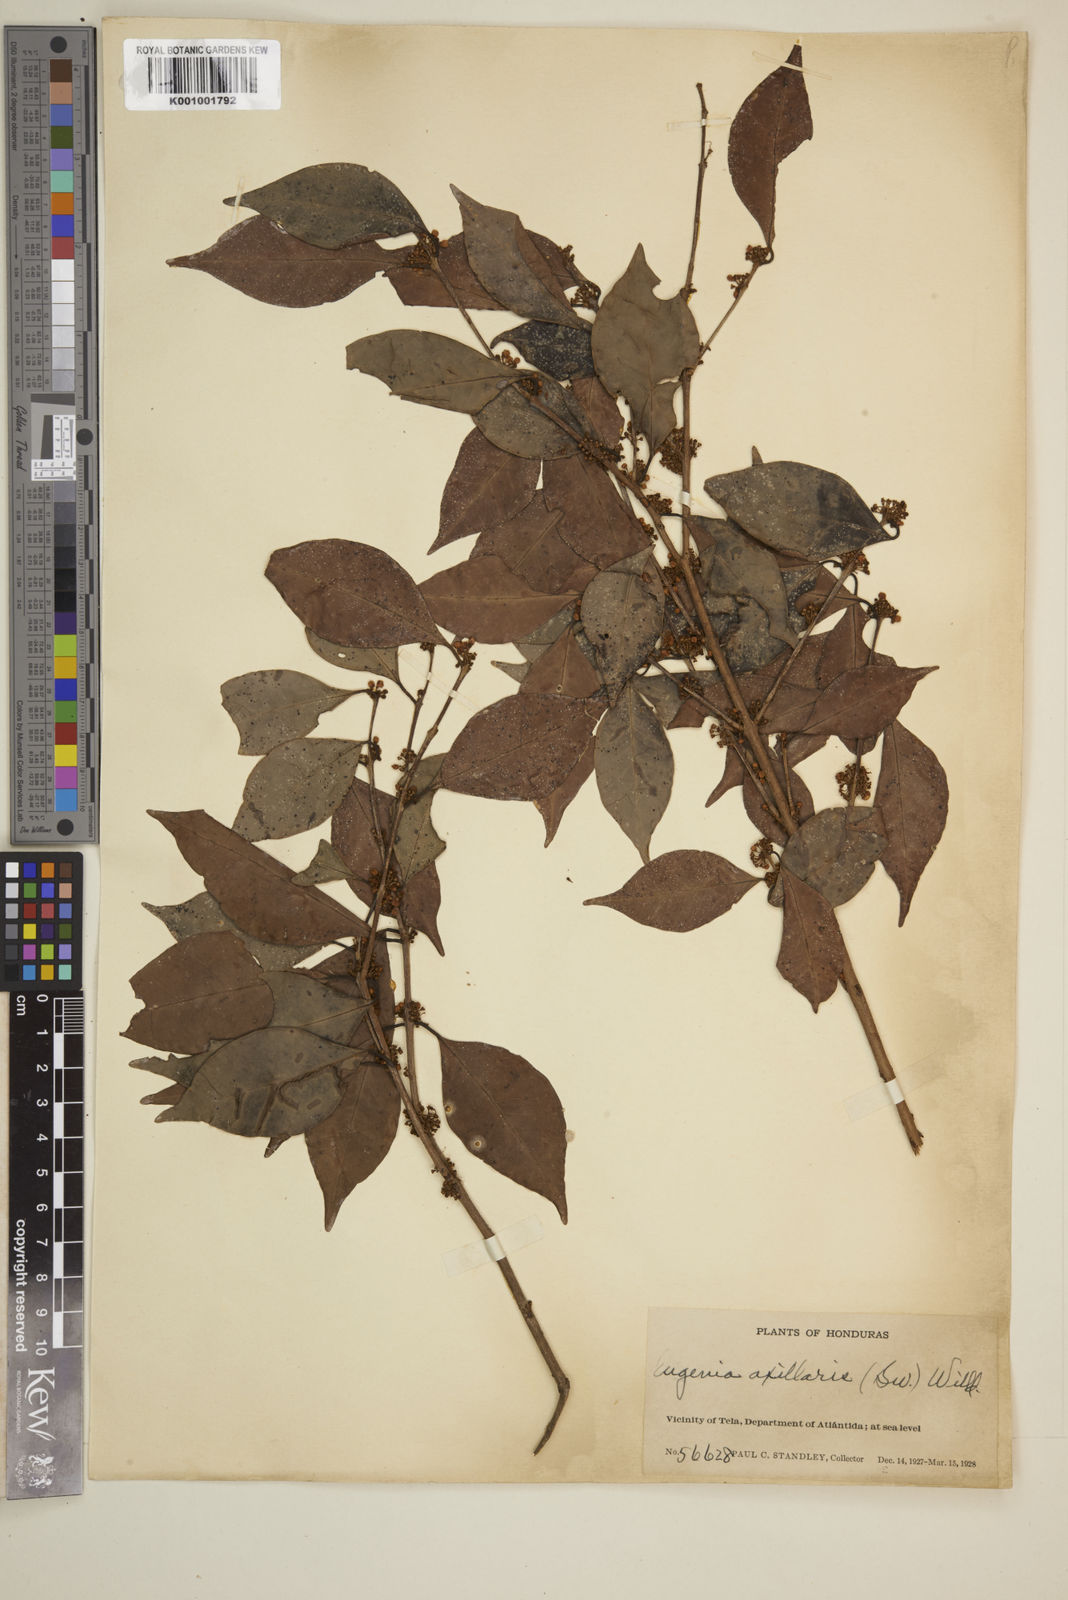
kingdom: Plantae
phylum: Tracheophyta
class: Magnoliopsida
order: Myrtales
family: Myrtaceae
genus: Eugenia
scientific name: Eugenia axillaris
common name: Choaky berry
